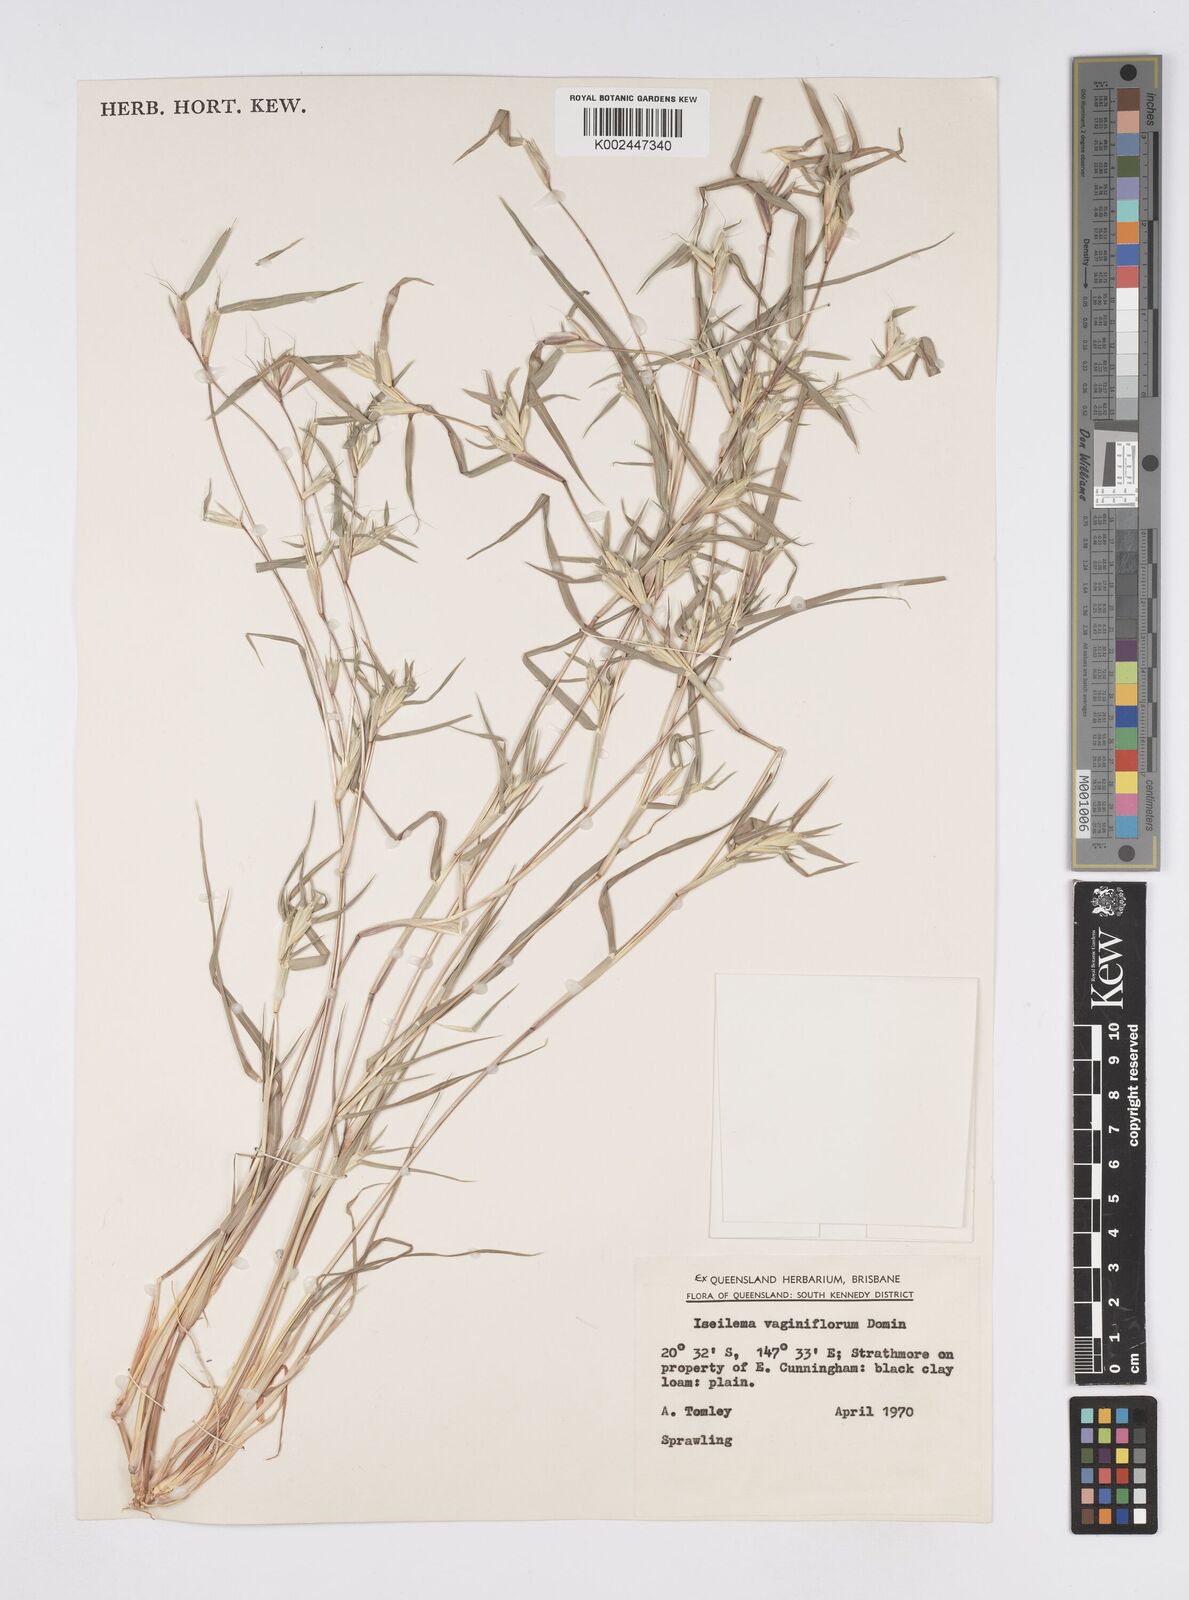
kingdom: Plantae
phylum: Tracheophyta
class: Liliopsida
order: Poales
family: Poaceae
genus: Iseilema
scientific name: Iseilema vaginiflorum
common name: Red flinders grass
